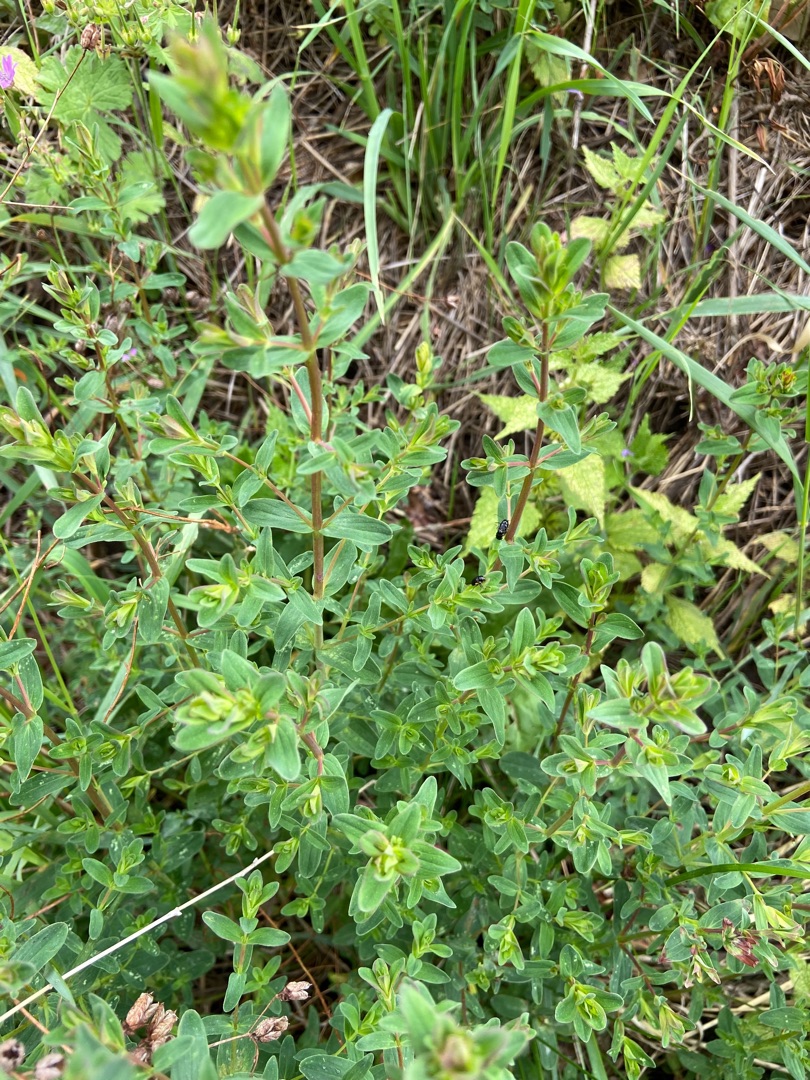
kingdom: Plantae
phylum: Tracheophyta
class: Magnoliopsida
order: Malpighiales
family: Hypericaceae
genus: Hypericum
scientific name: Hypericum perforatum
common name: Prikbladet perikon
